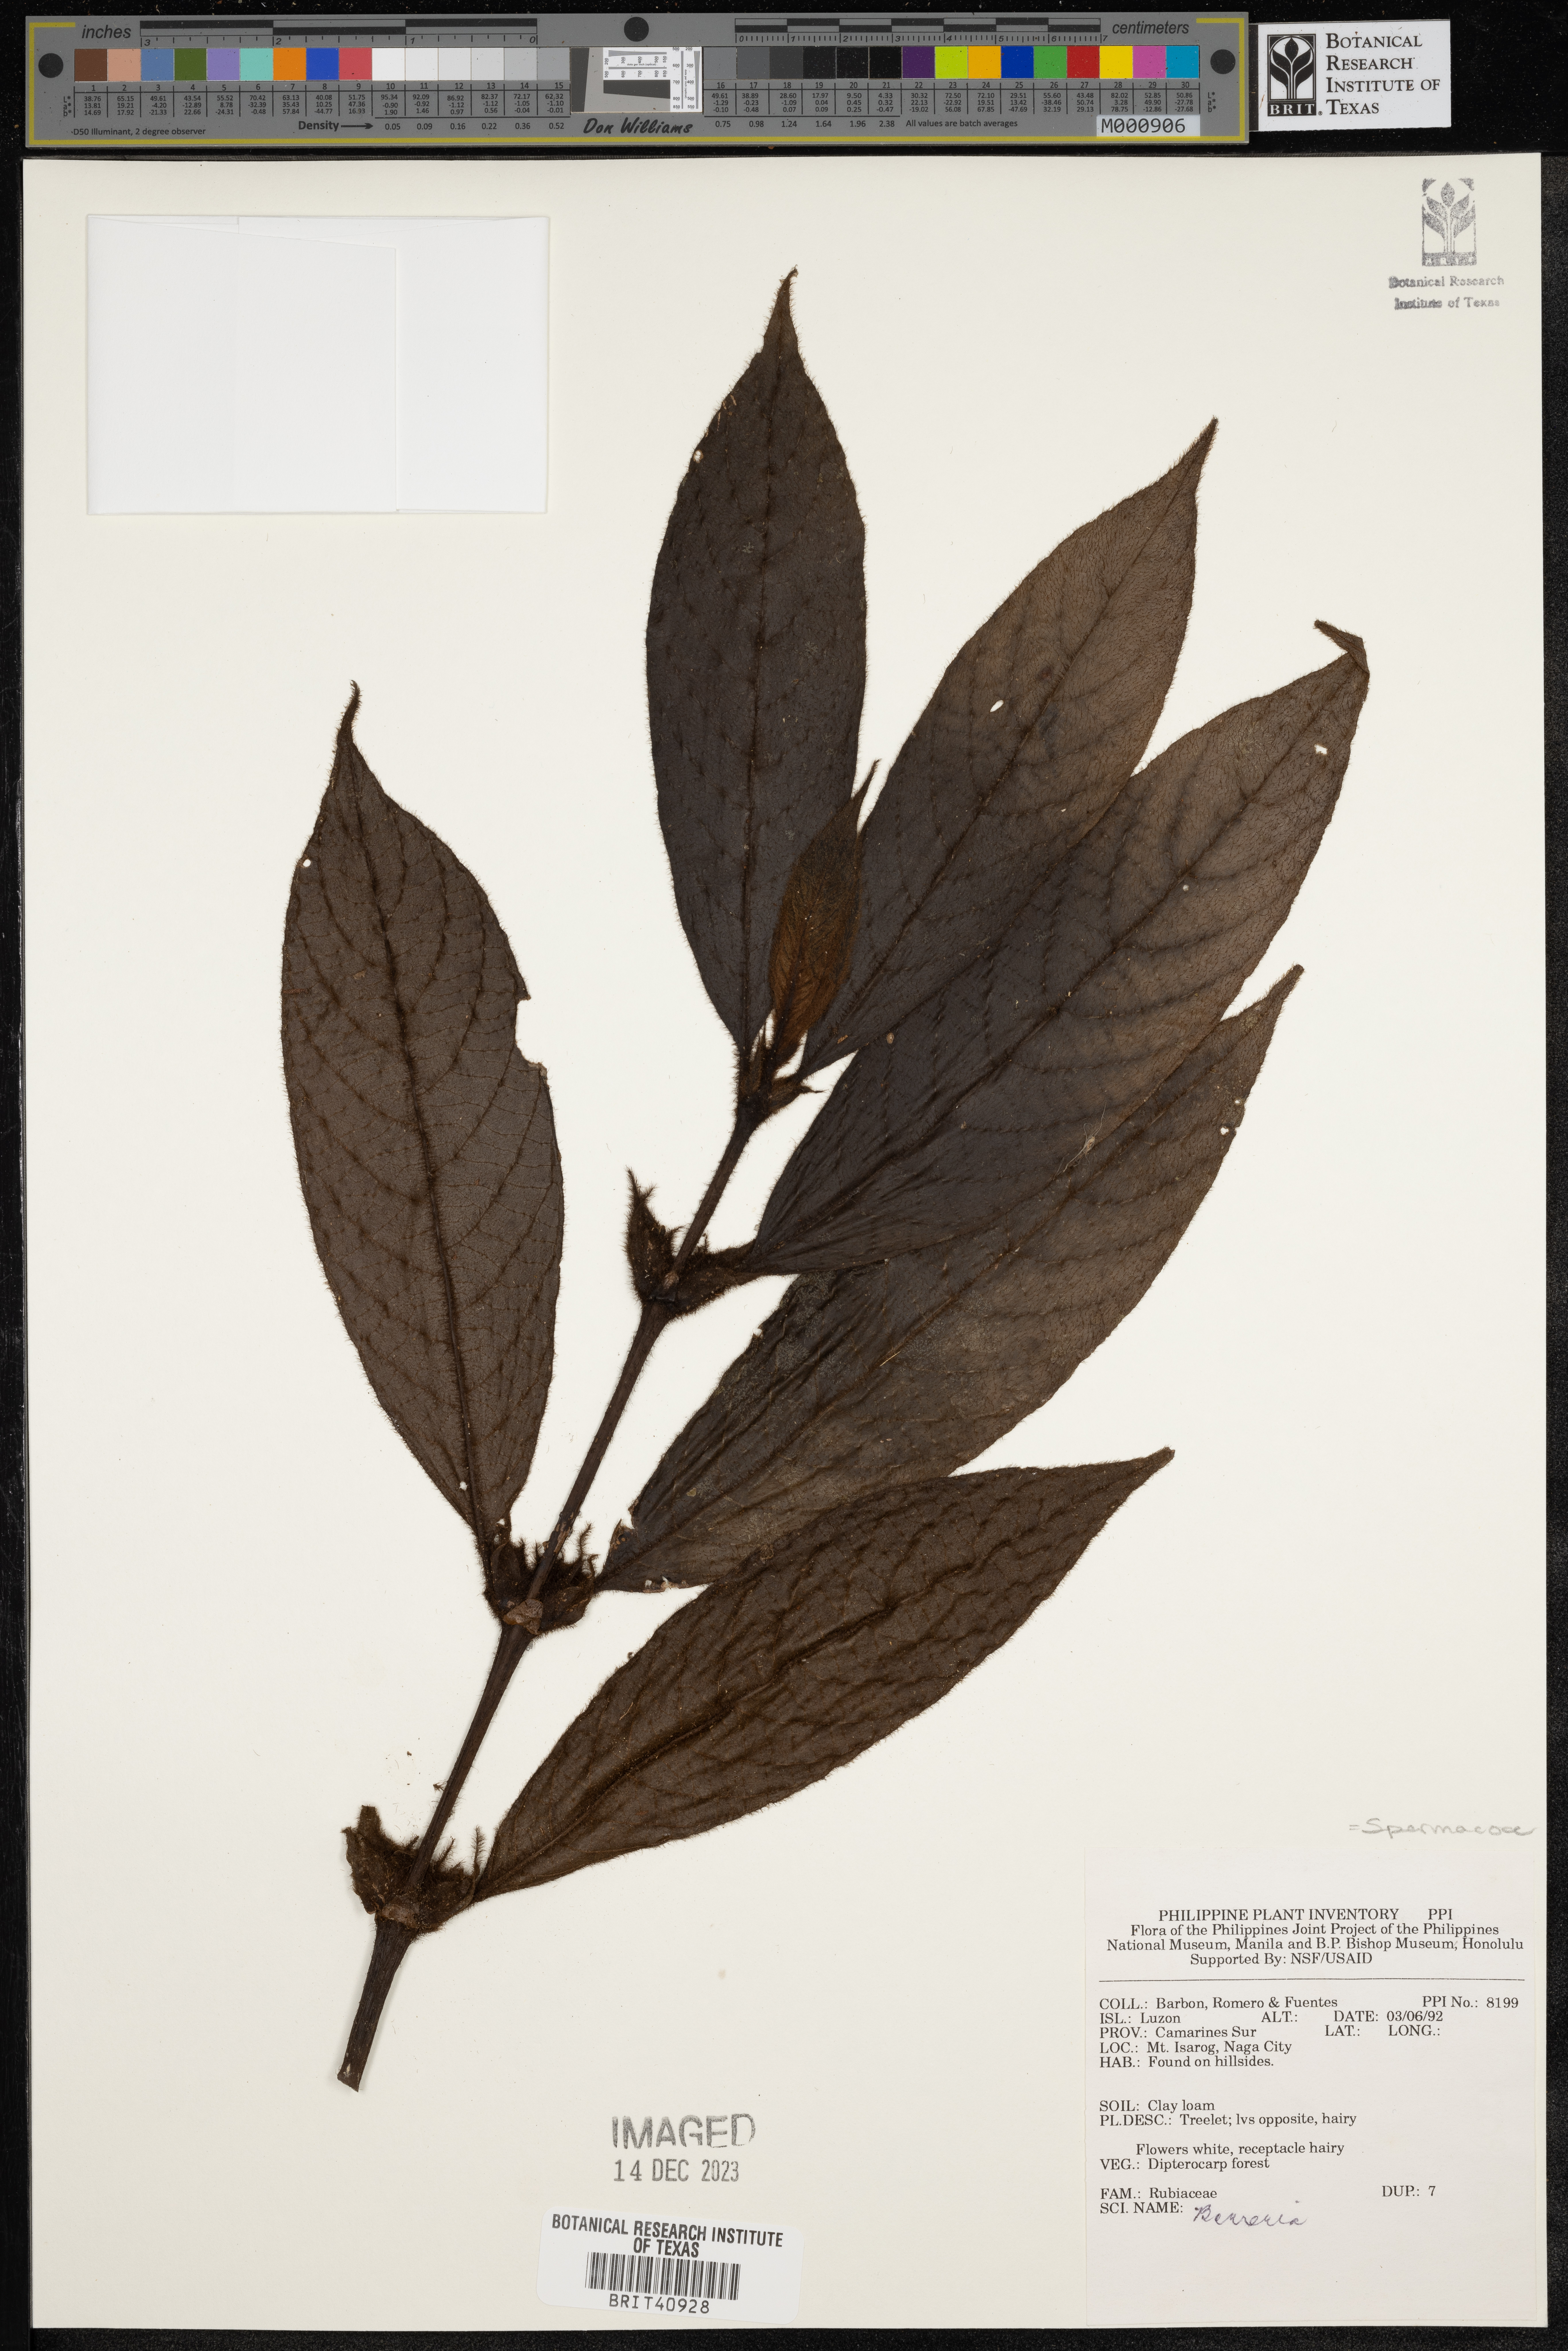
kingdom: Plantae
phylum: Tracheophyta
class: Magnoliopsida
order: Gentianales
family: Rubiaceae
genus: Spermacoce
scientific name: Spermacoce
